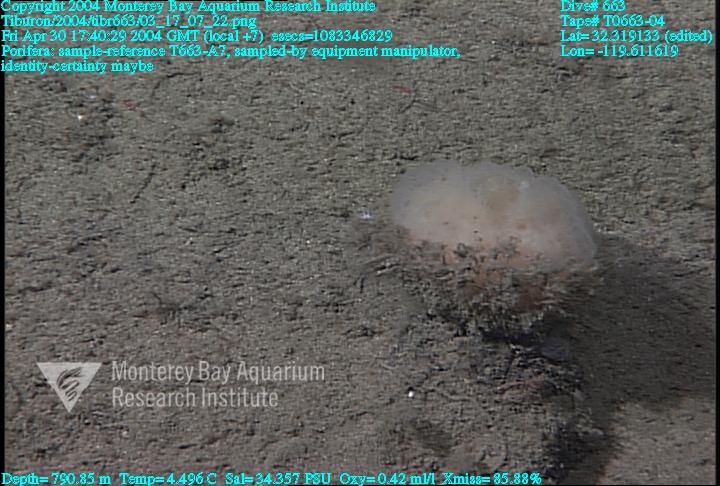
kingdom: Animalia
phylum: Porifera
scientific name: Porifera
